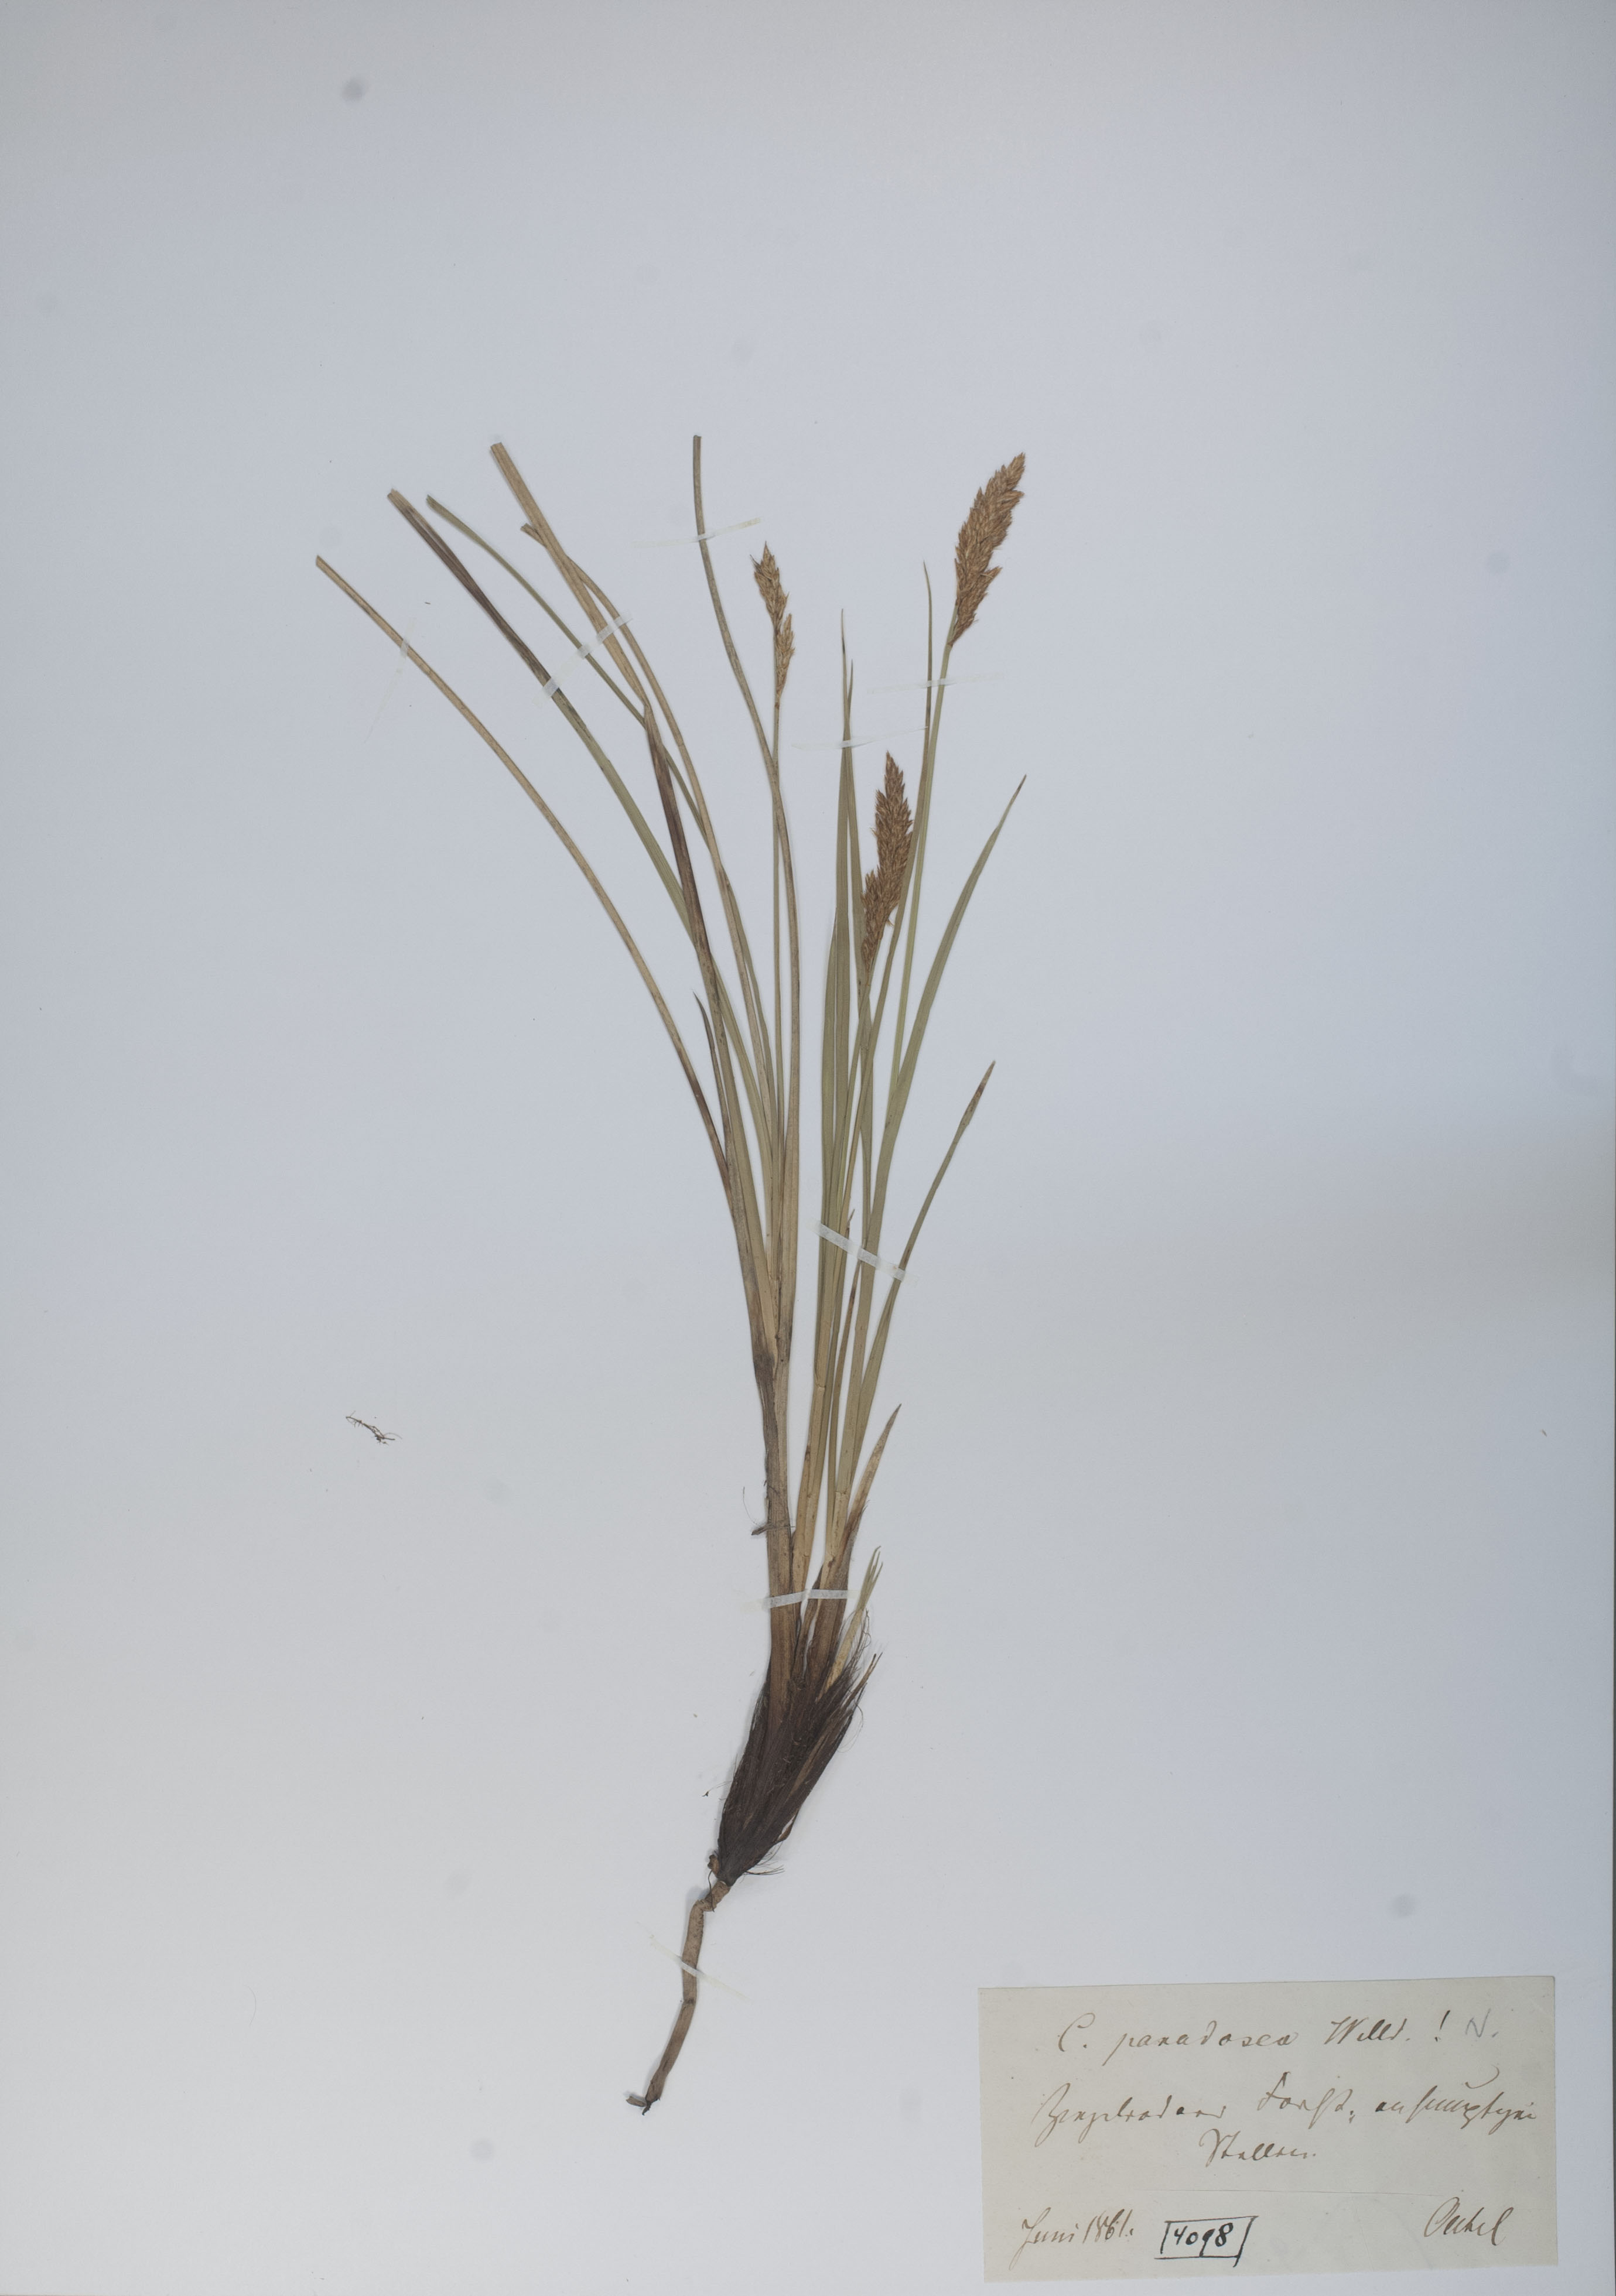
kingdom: Plantae
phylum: Tracheophyta
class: Liliopsida
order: Poales
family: Cyperaceae
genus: Carex
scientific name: Carex appropinquata
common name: Fibrous tussock-sedge
